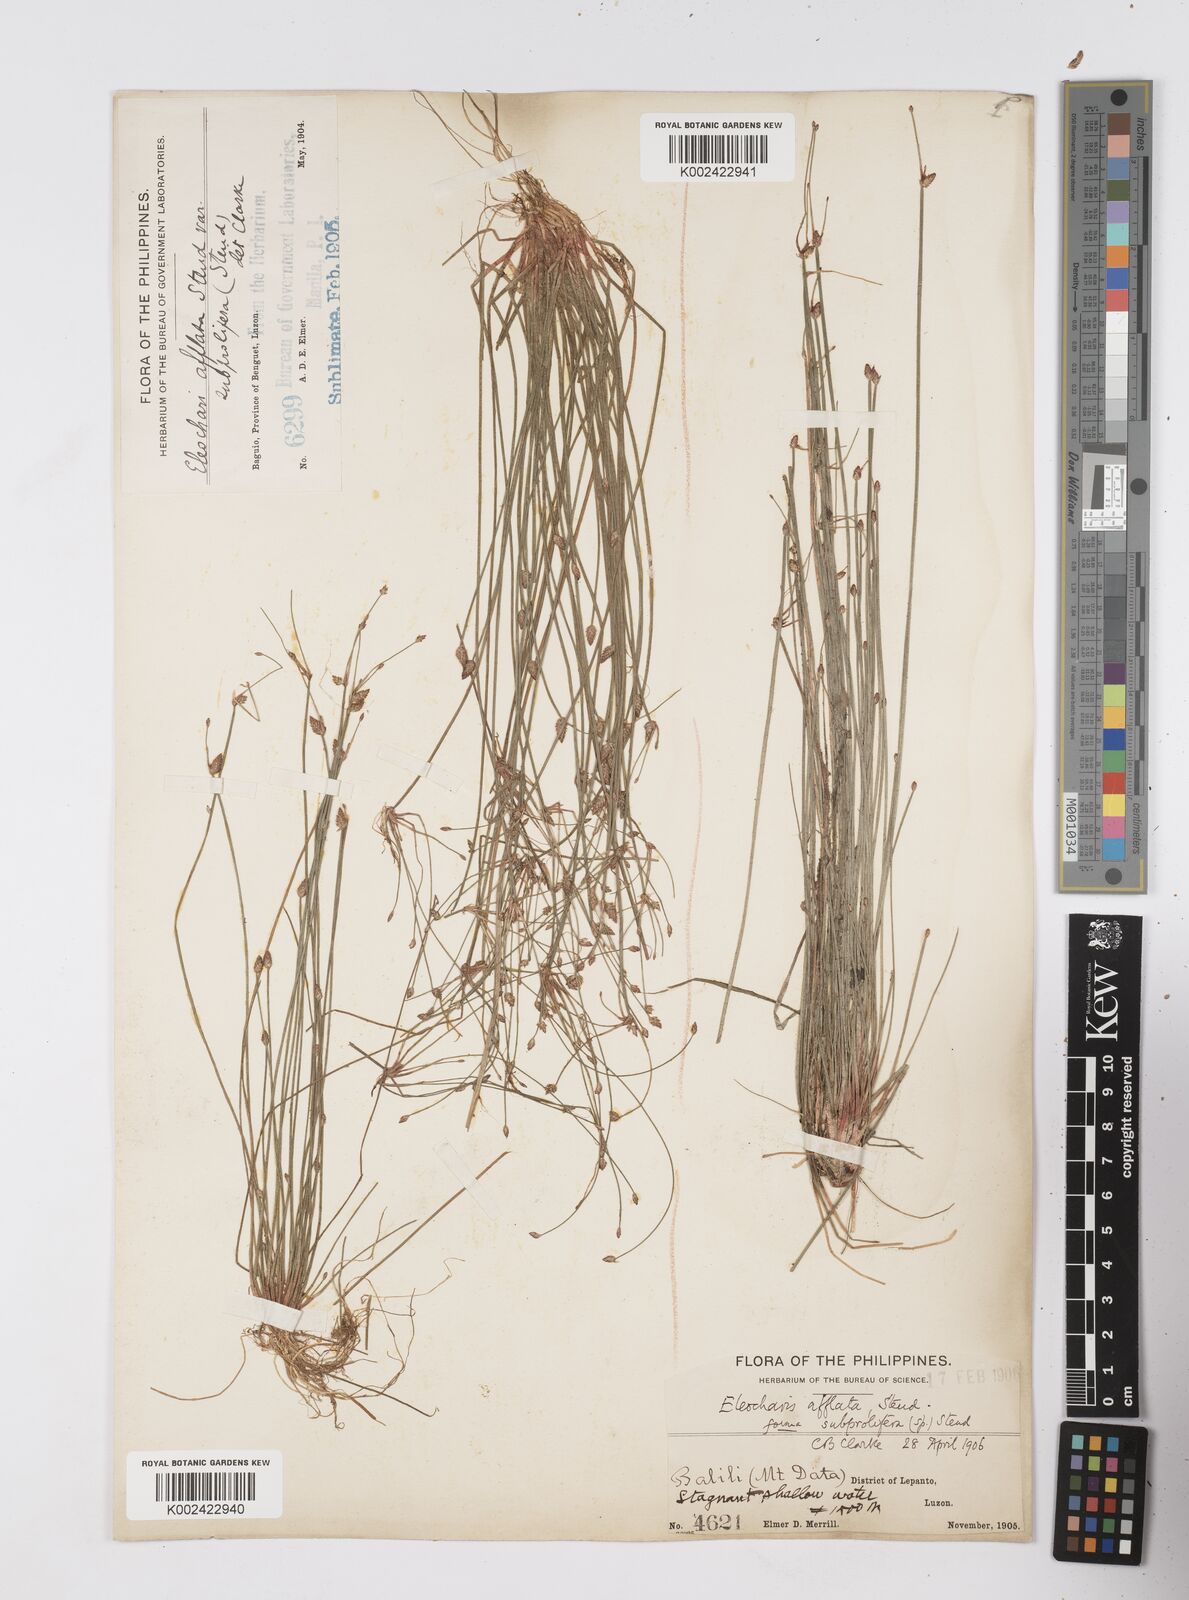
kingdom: Plantae
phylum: Tracheophyta
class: Liliopsida
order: Poales
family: Cyperaceae
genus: Eleocharis
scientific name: Eleocharis congesta
